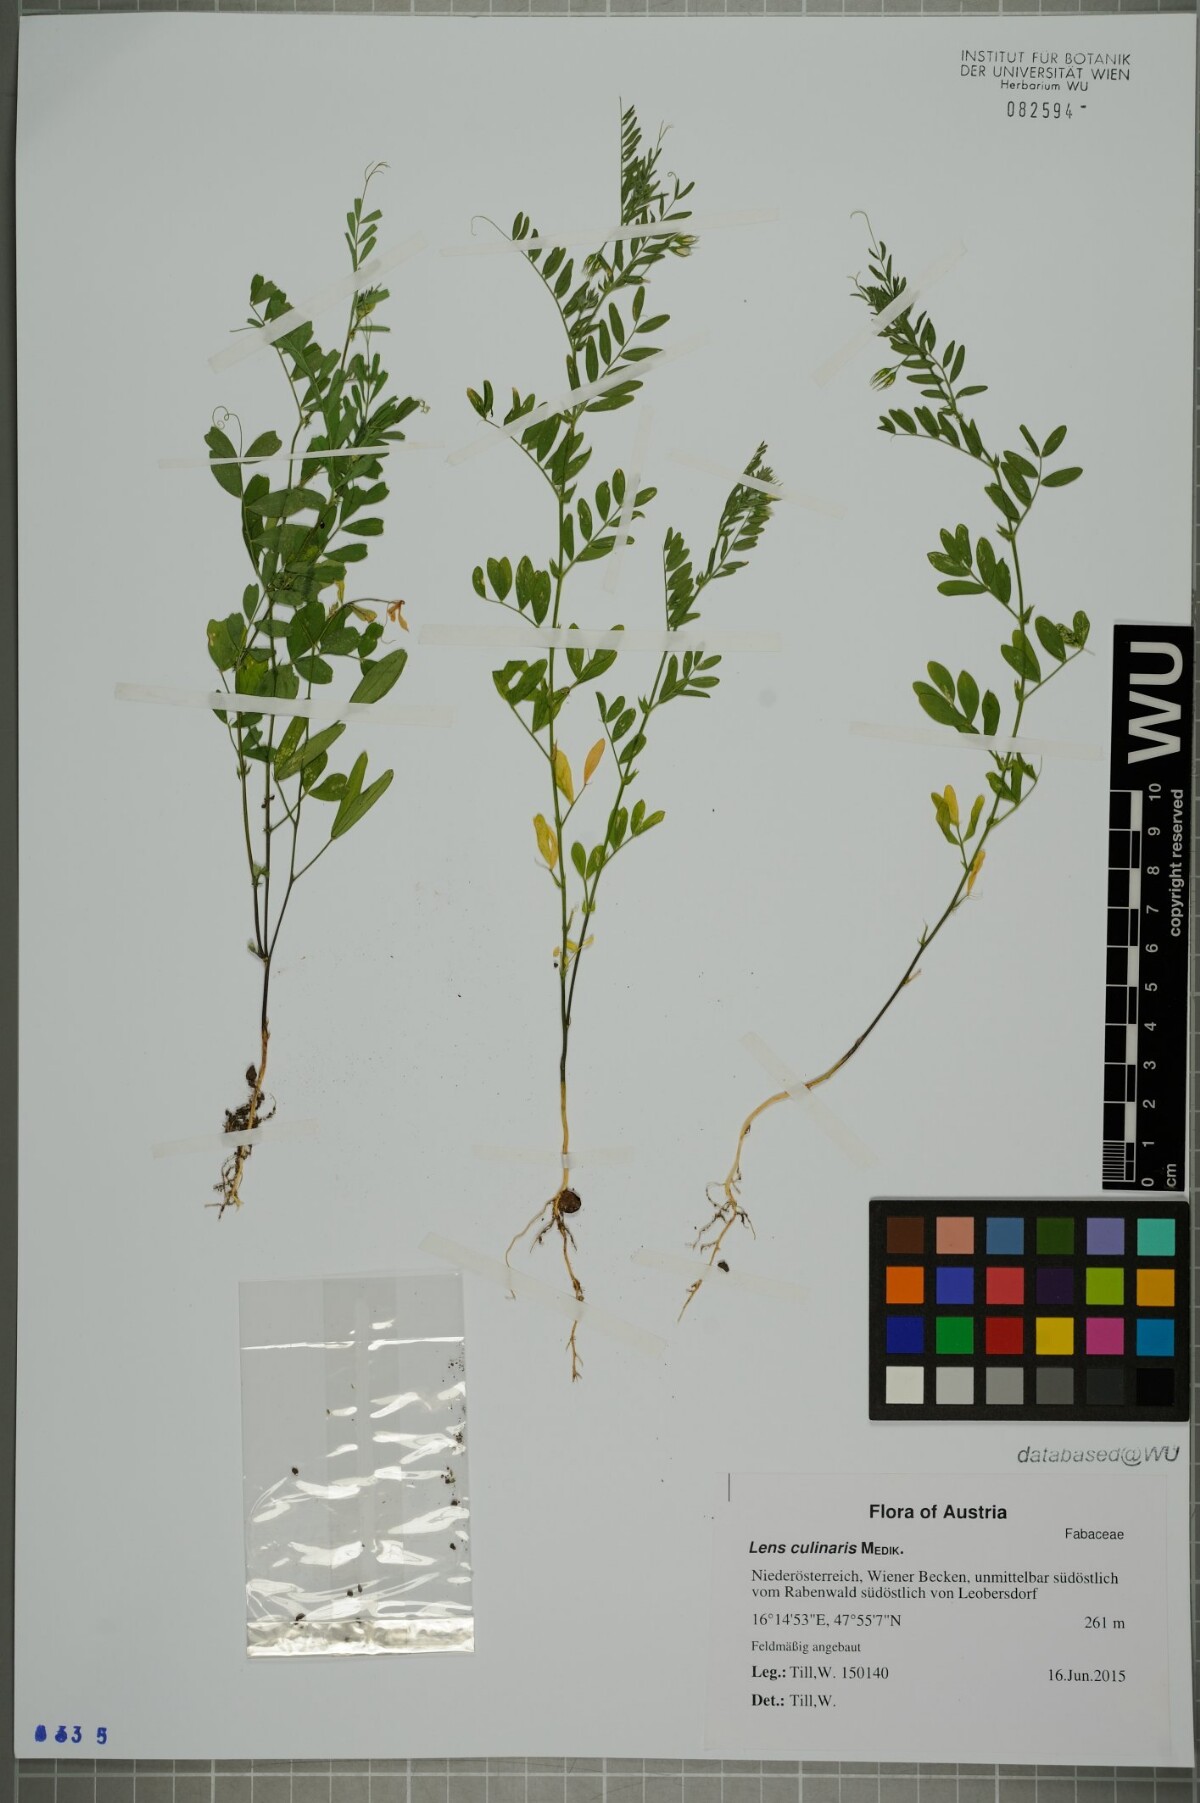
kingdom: Plantae
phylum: Tracheophyta
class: Magnoliopsida
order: Fabales
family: Fabaceae
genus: Vicia
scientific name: Vicia lens
